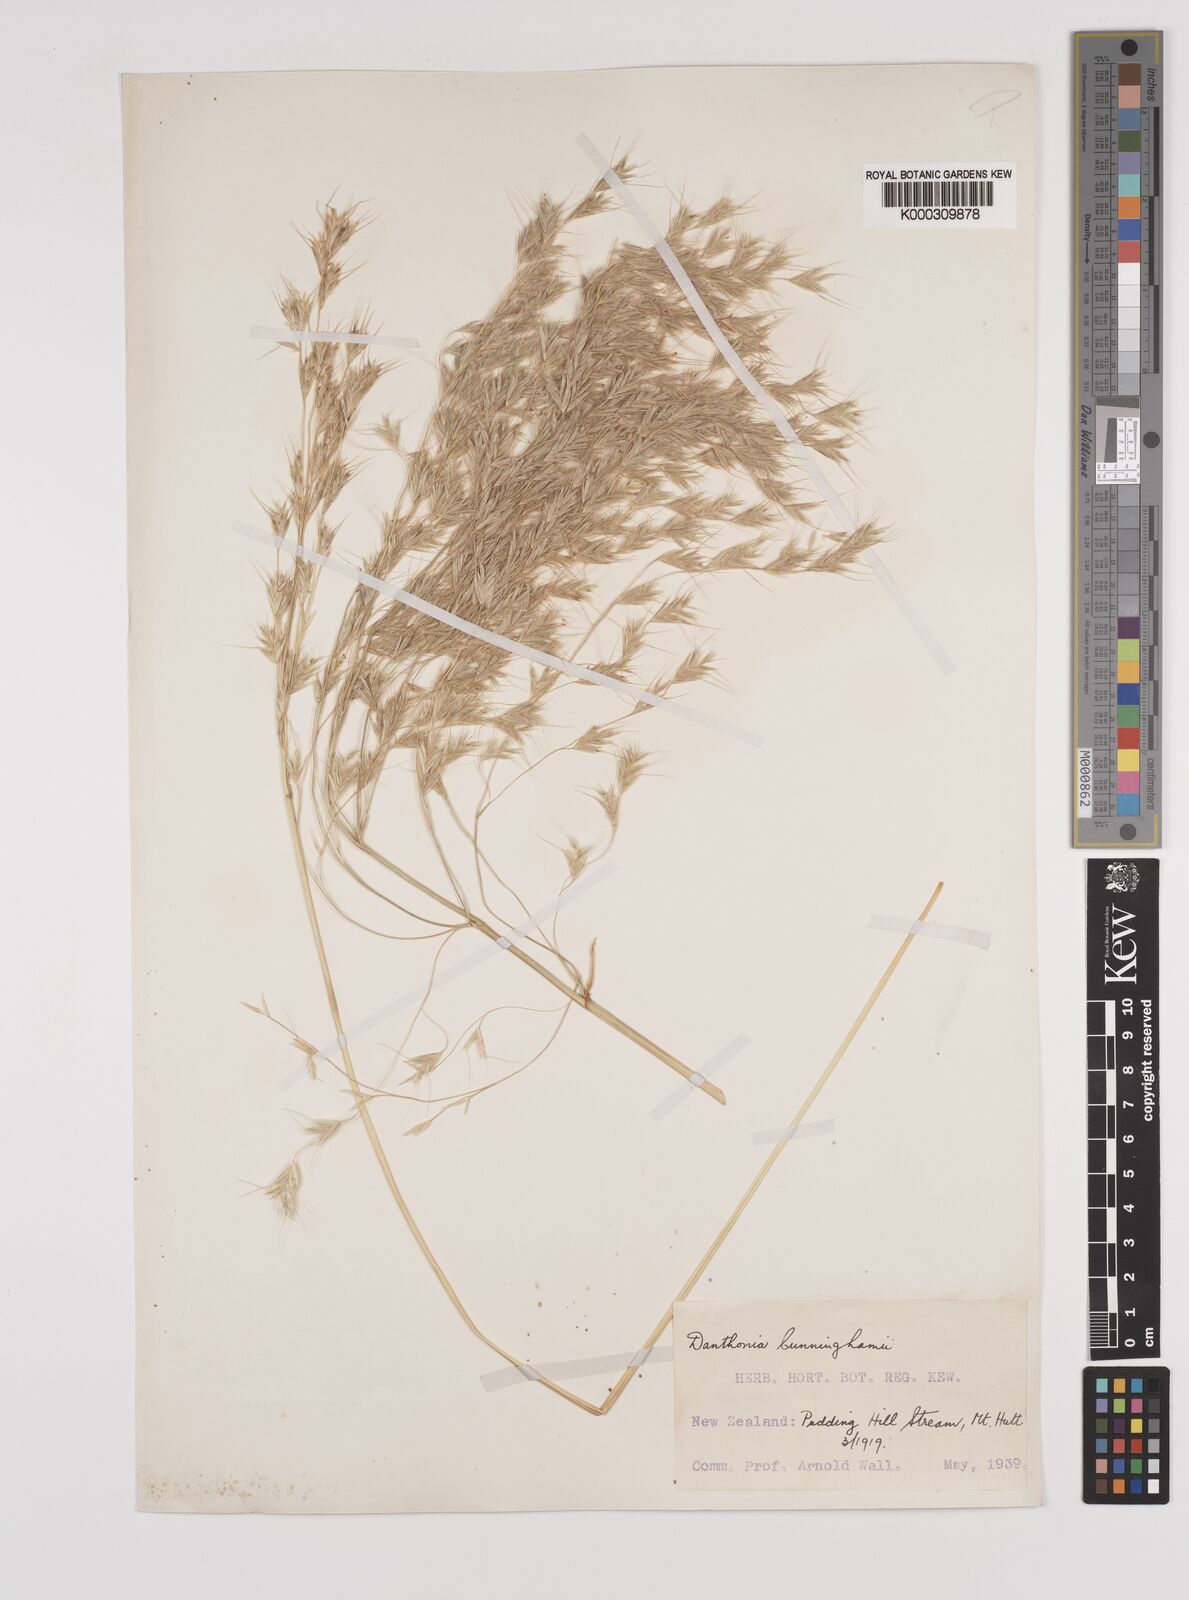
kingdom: Plantae
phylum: Tracheophyta
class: Liliopsida
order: Poales
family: Poaceae
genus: Chionochloa
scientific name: Chionochloa conspicua
